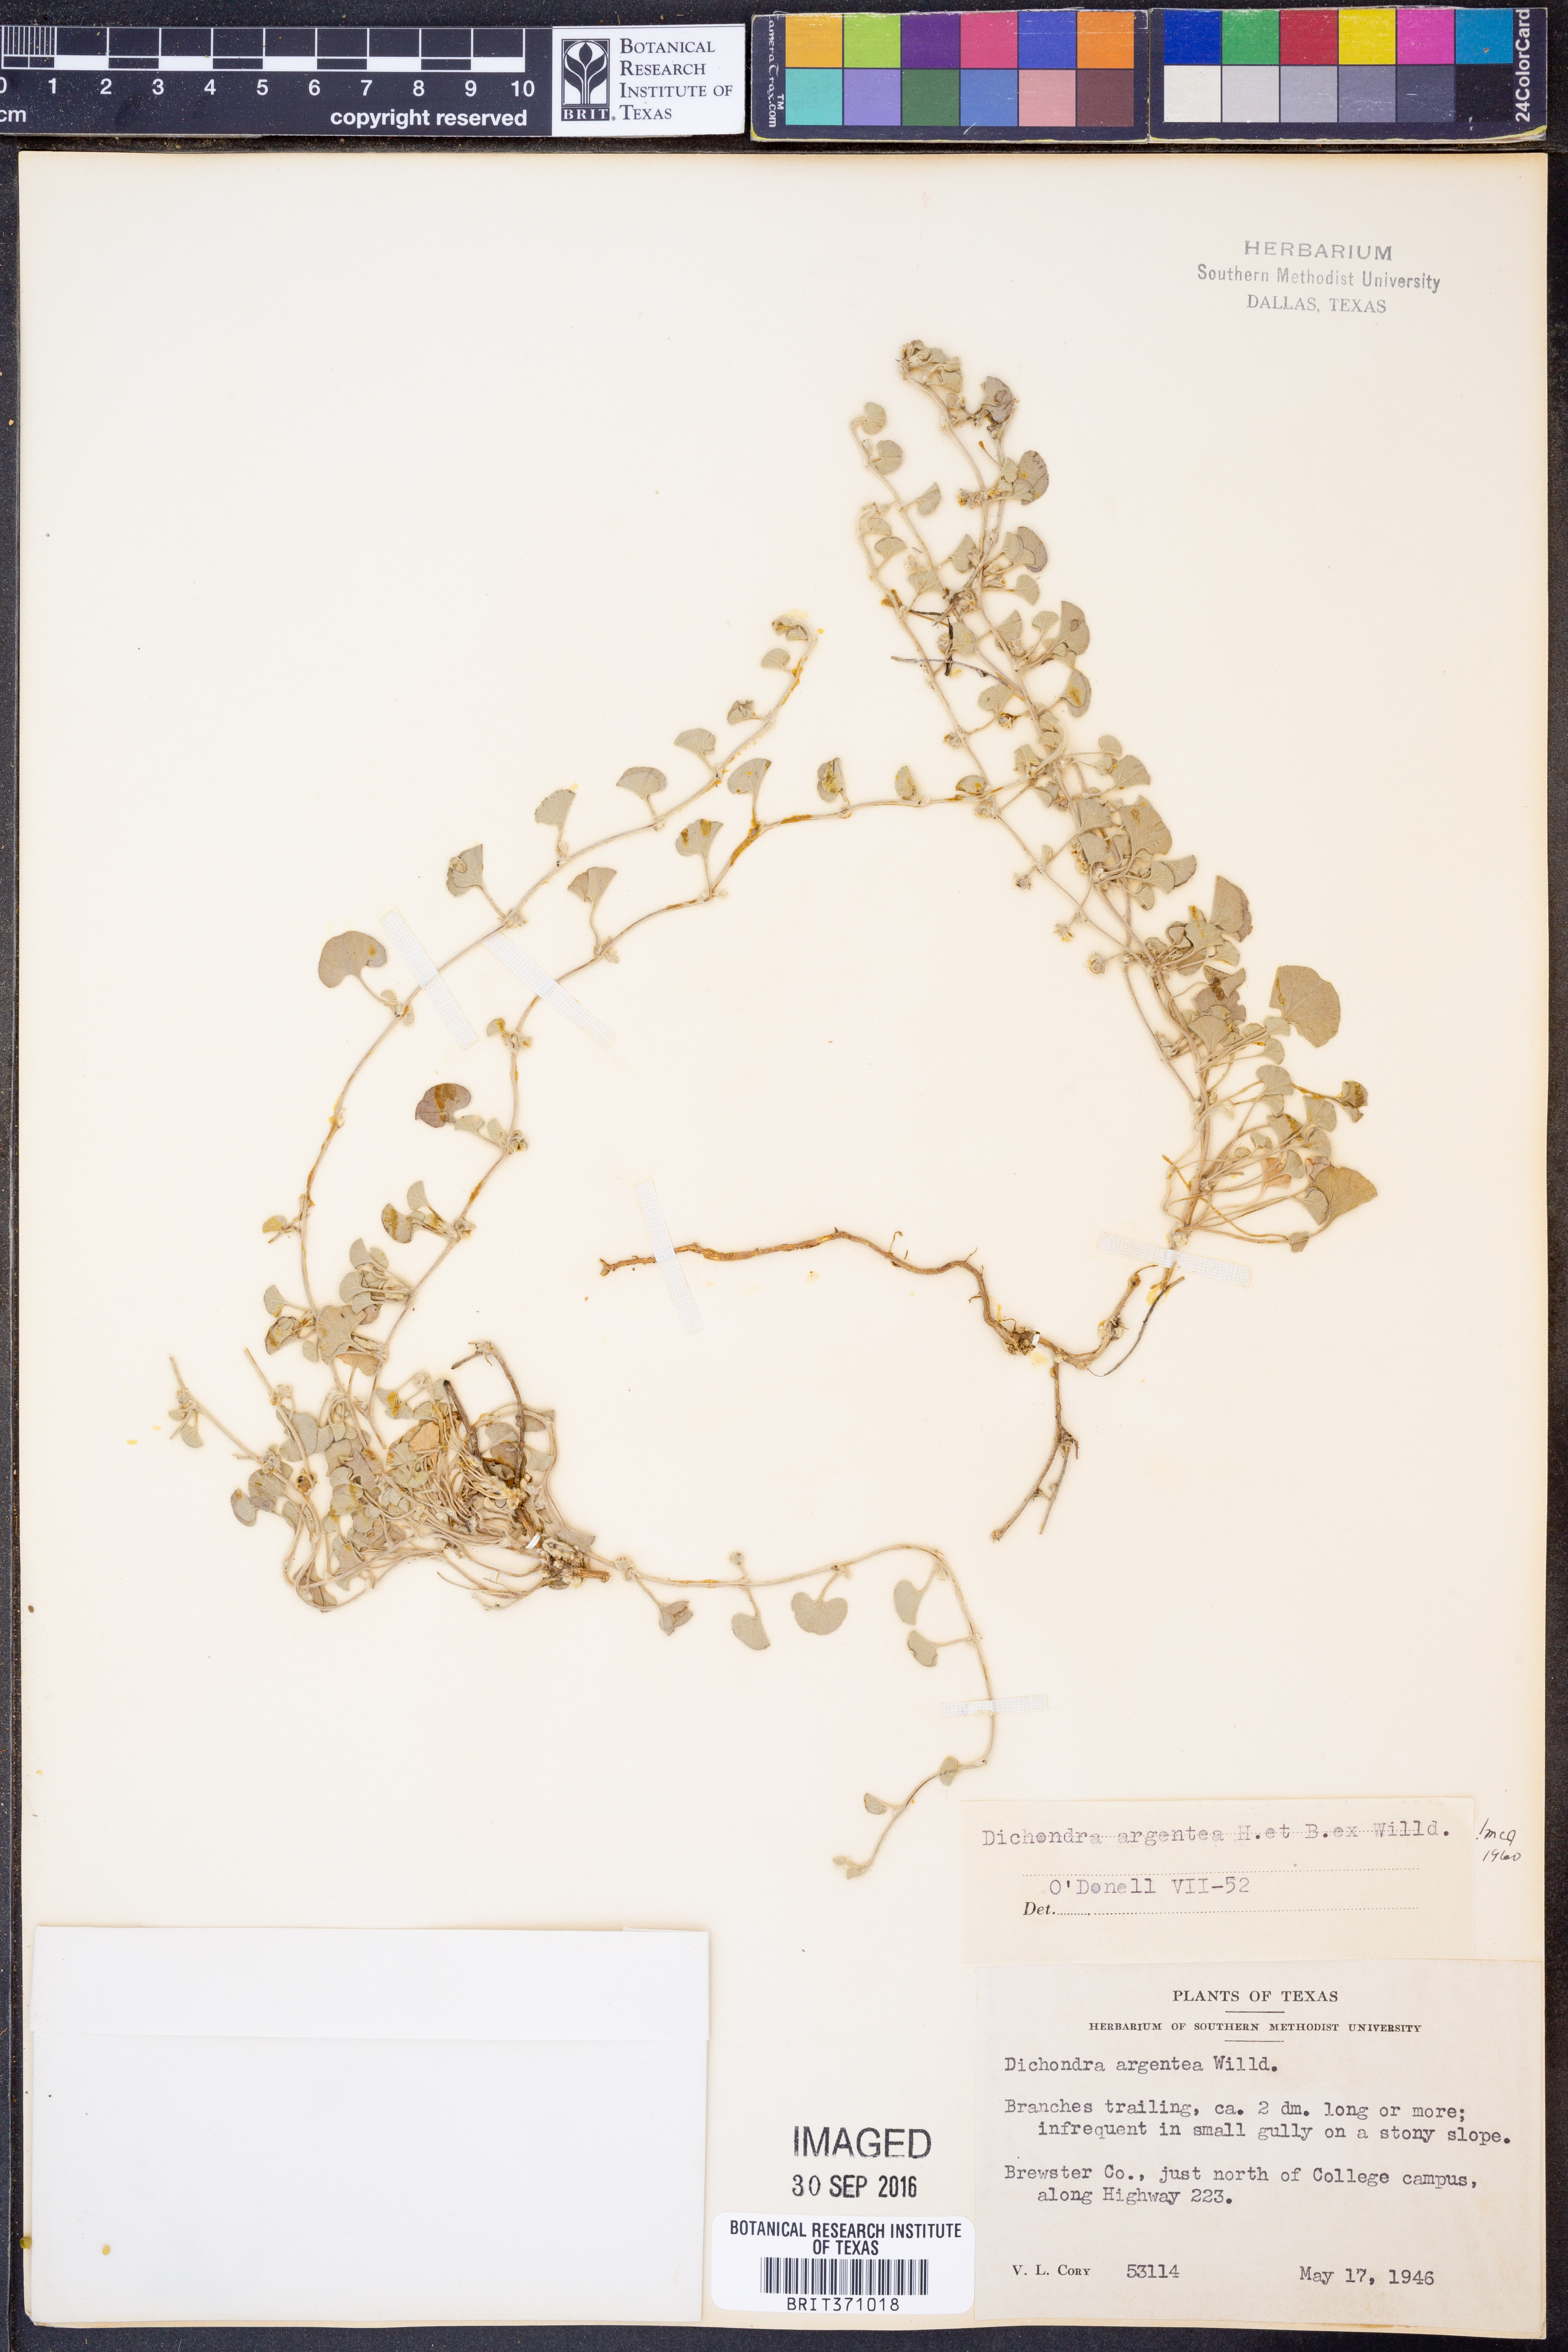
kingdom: Plantae
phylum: Tracheophyta
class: Magnoliopsida
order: Solanales
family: Convolvulaceae
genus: Dichondra
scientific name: Dichondra argentea
